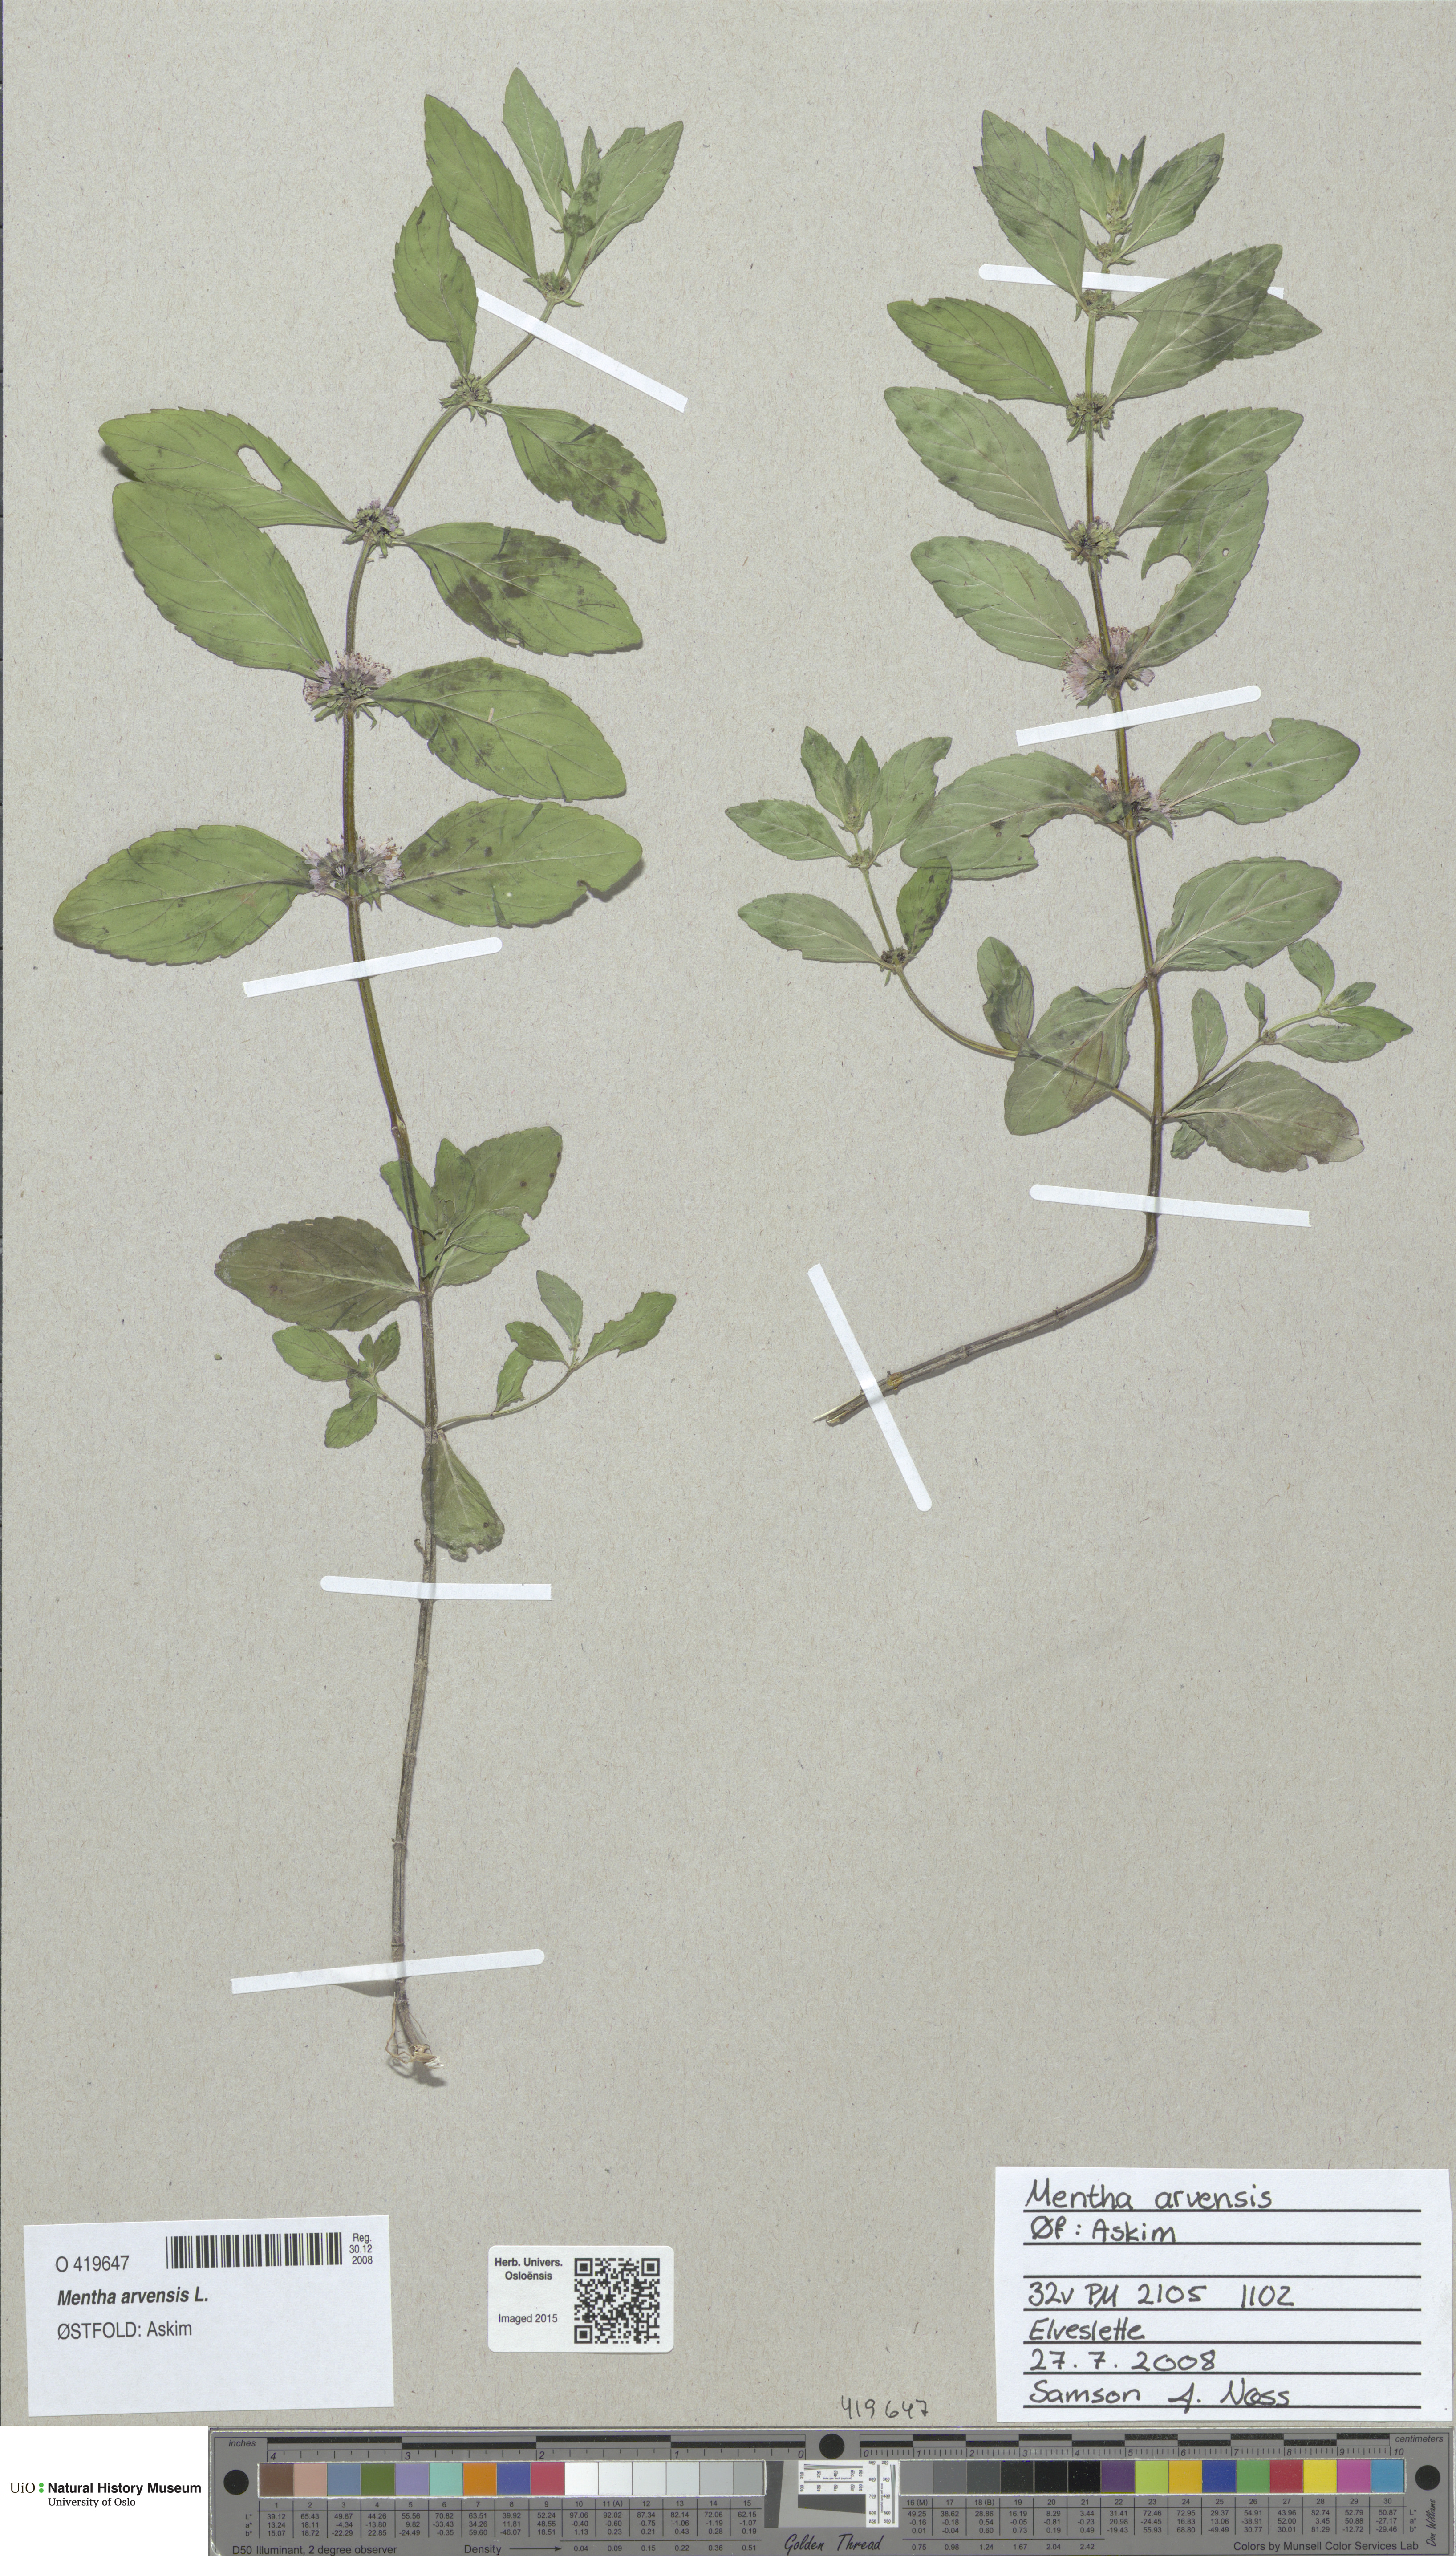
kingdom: Plantae
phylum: Tracheophyta
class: Magnoliopsida
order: Lamiales
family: Lamiaceae
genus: Mentha
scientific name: Mentha arvensis
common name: Corn mint
